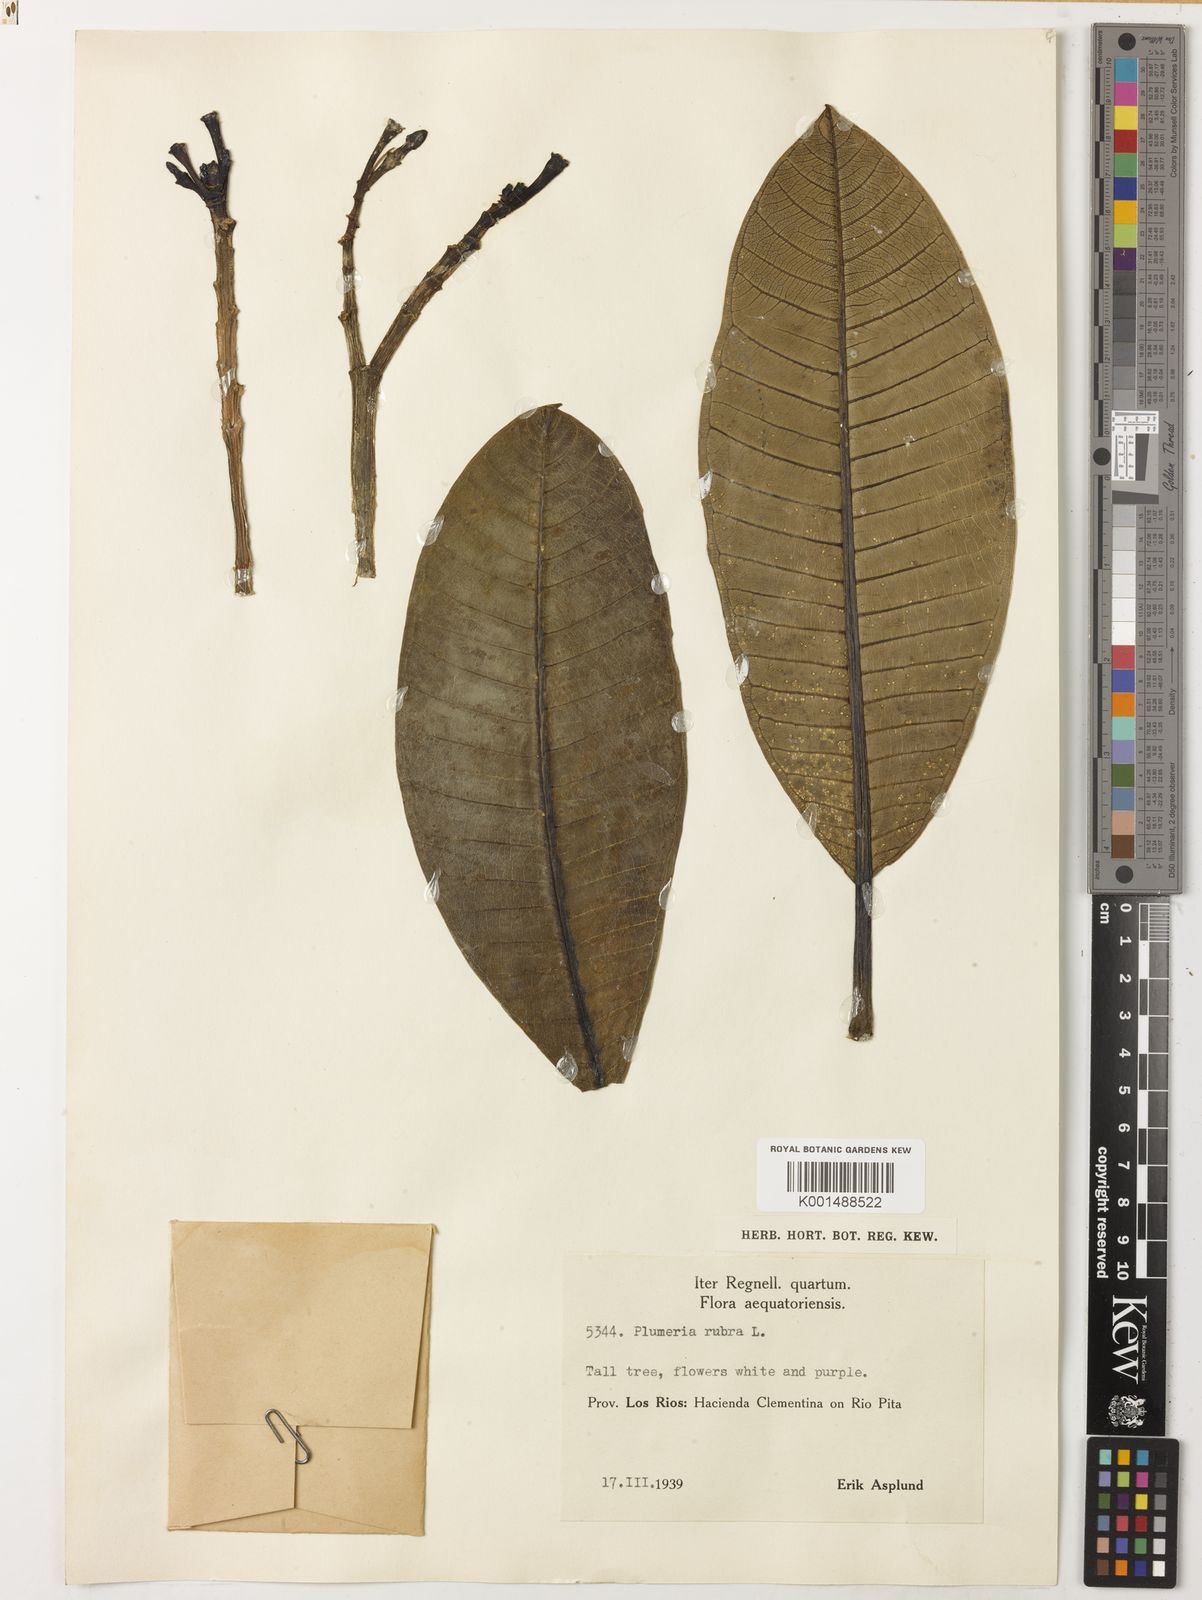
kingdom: Plantae
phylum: Tracheophyta
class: Magnoliopsida
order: Gentianales
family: Apocynaceae
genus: Plumeria
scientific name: Plumeria rubra
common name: Pagoda-tree
